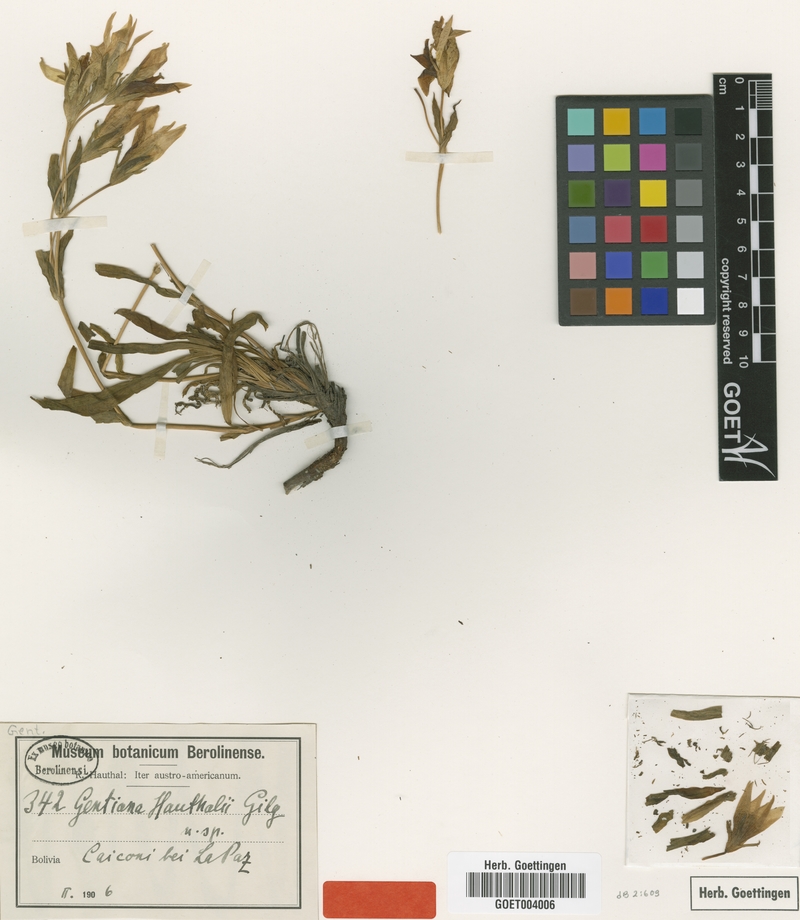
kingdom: Plantae
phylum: Tracheophyta
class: Magnoliopsida
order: Gentianales
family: Gentianaceae
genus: Gentianella
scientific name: Gentianella dielsiana
